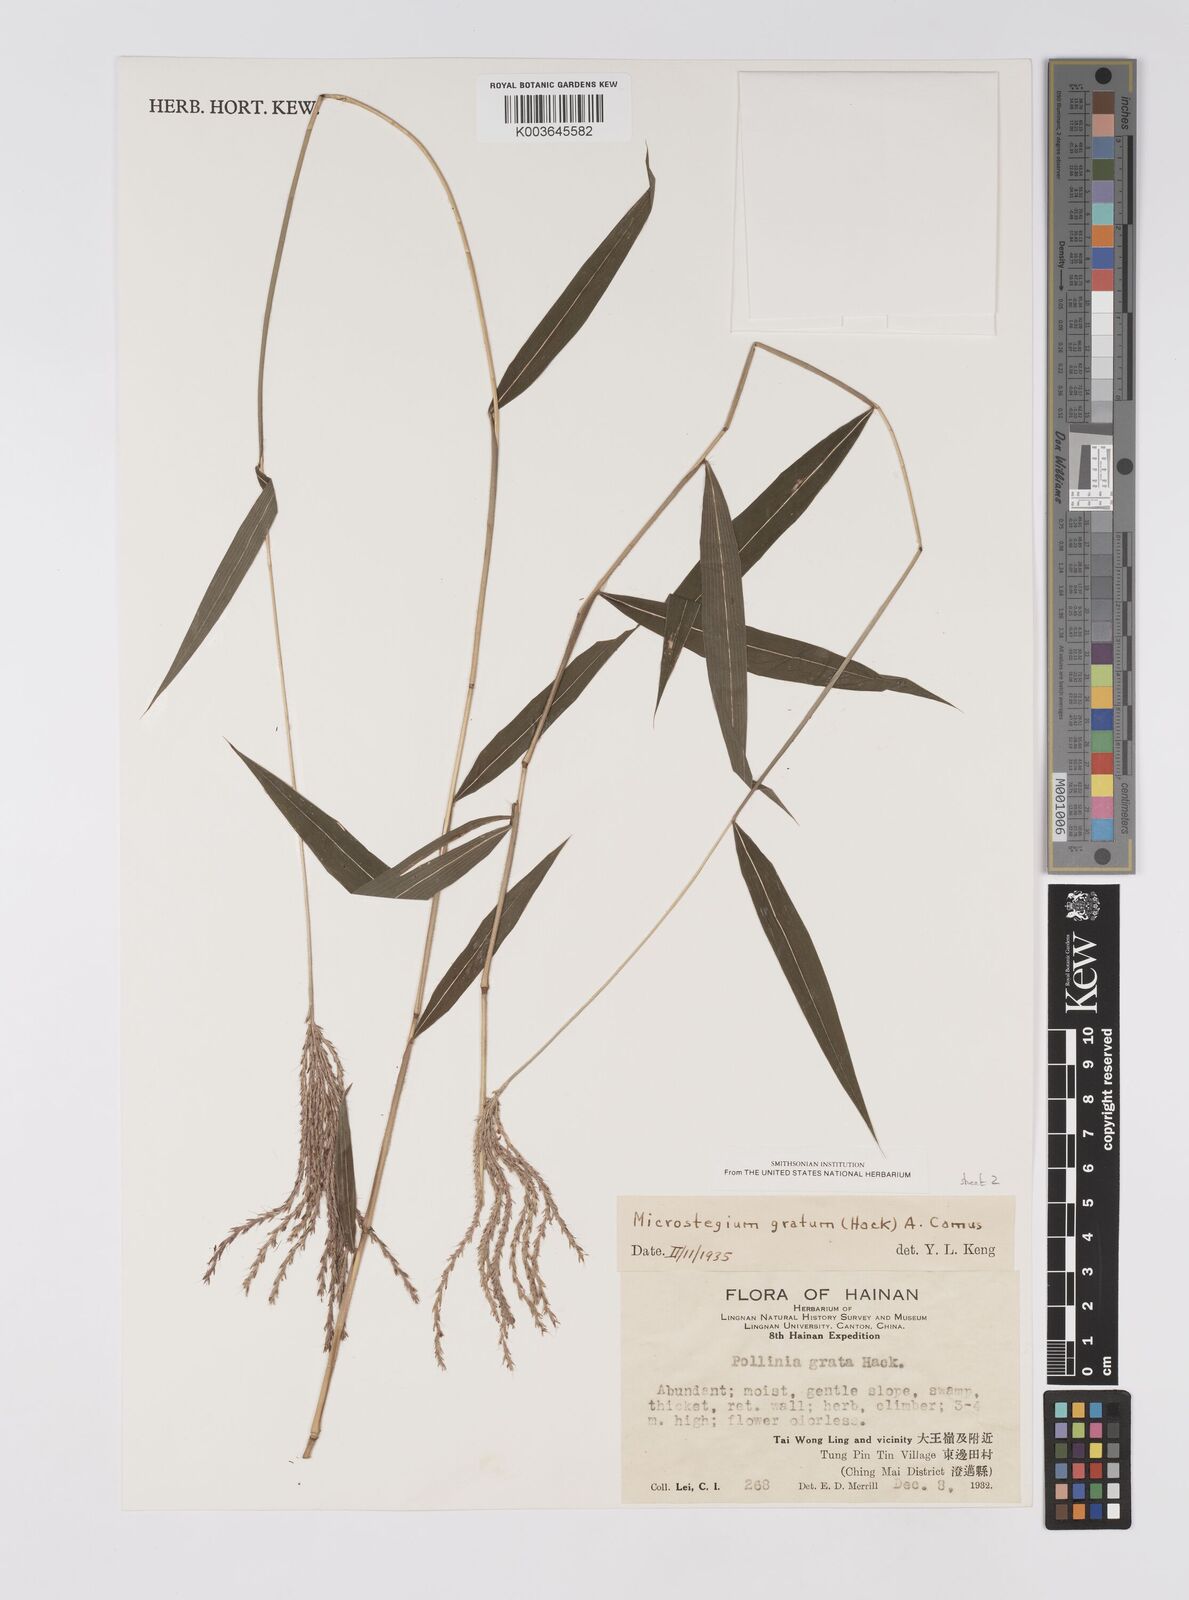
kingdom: Plantae
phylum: Tracheophyta
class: Liliopsida
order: Poales
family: Poaceae
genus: Microstegium
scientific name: Microstegium fasciculatum
